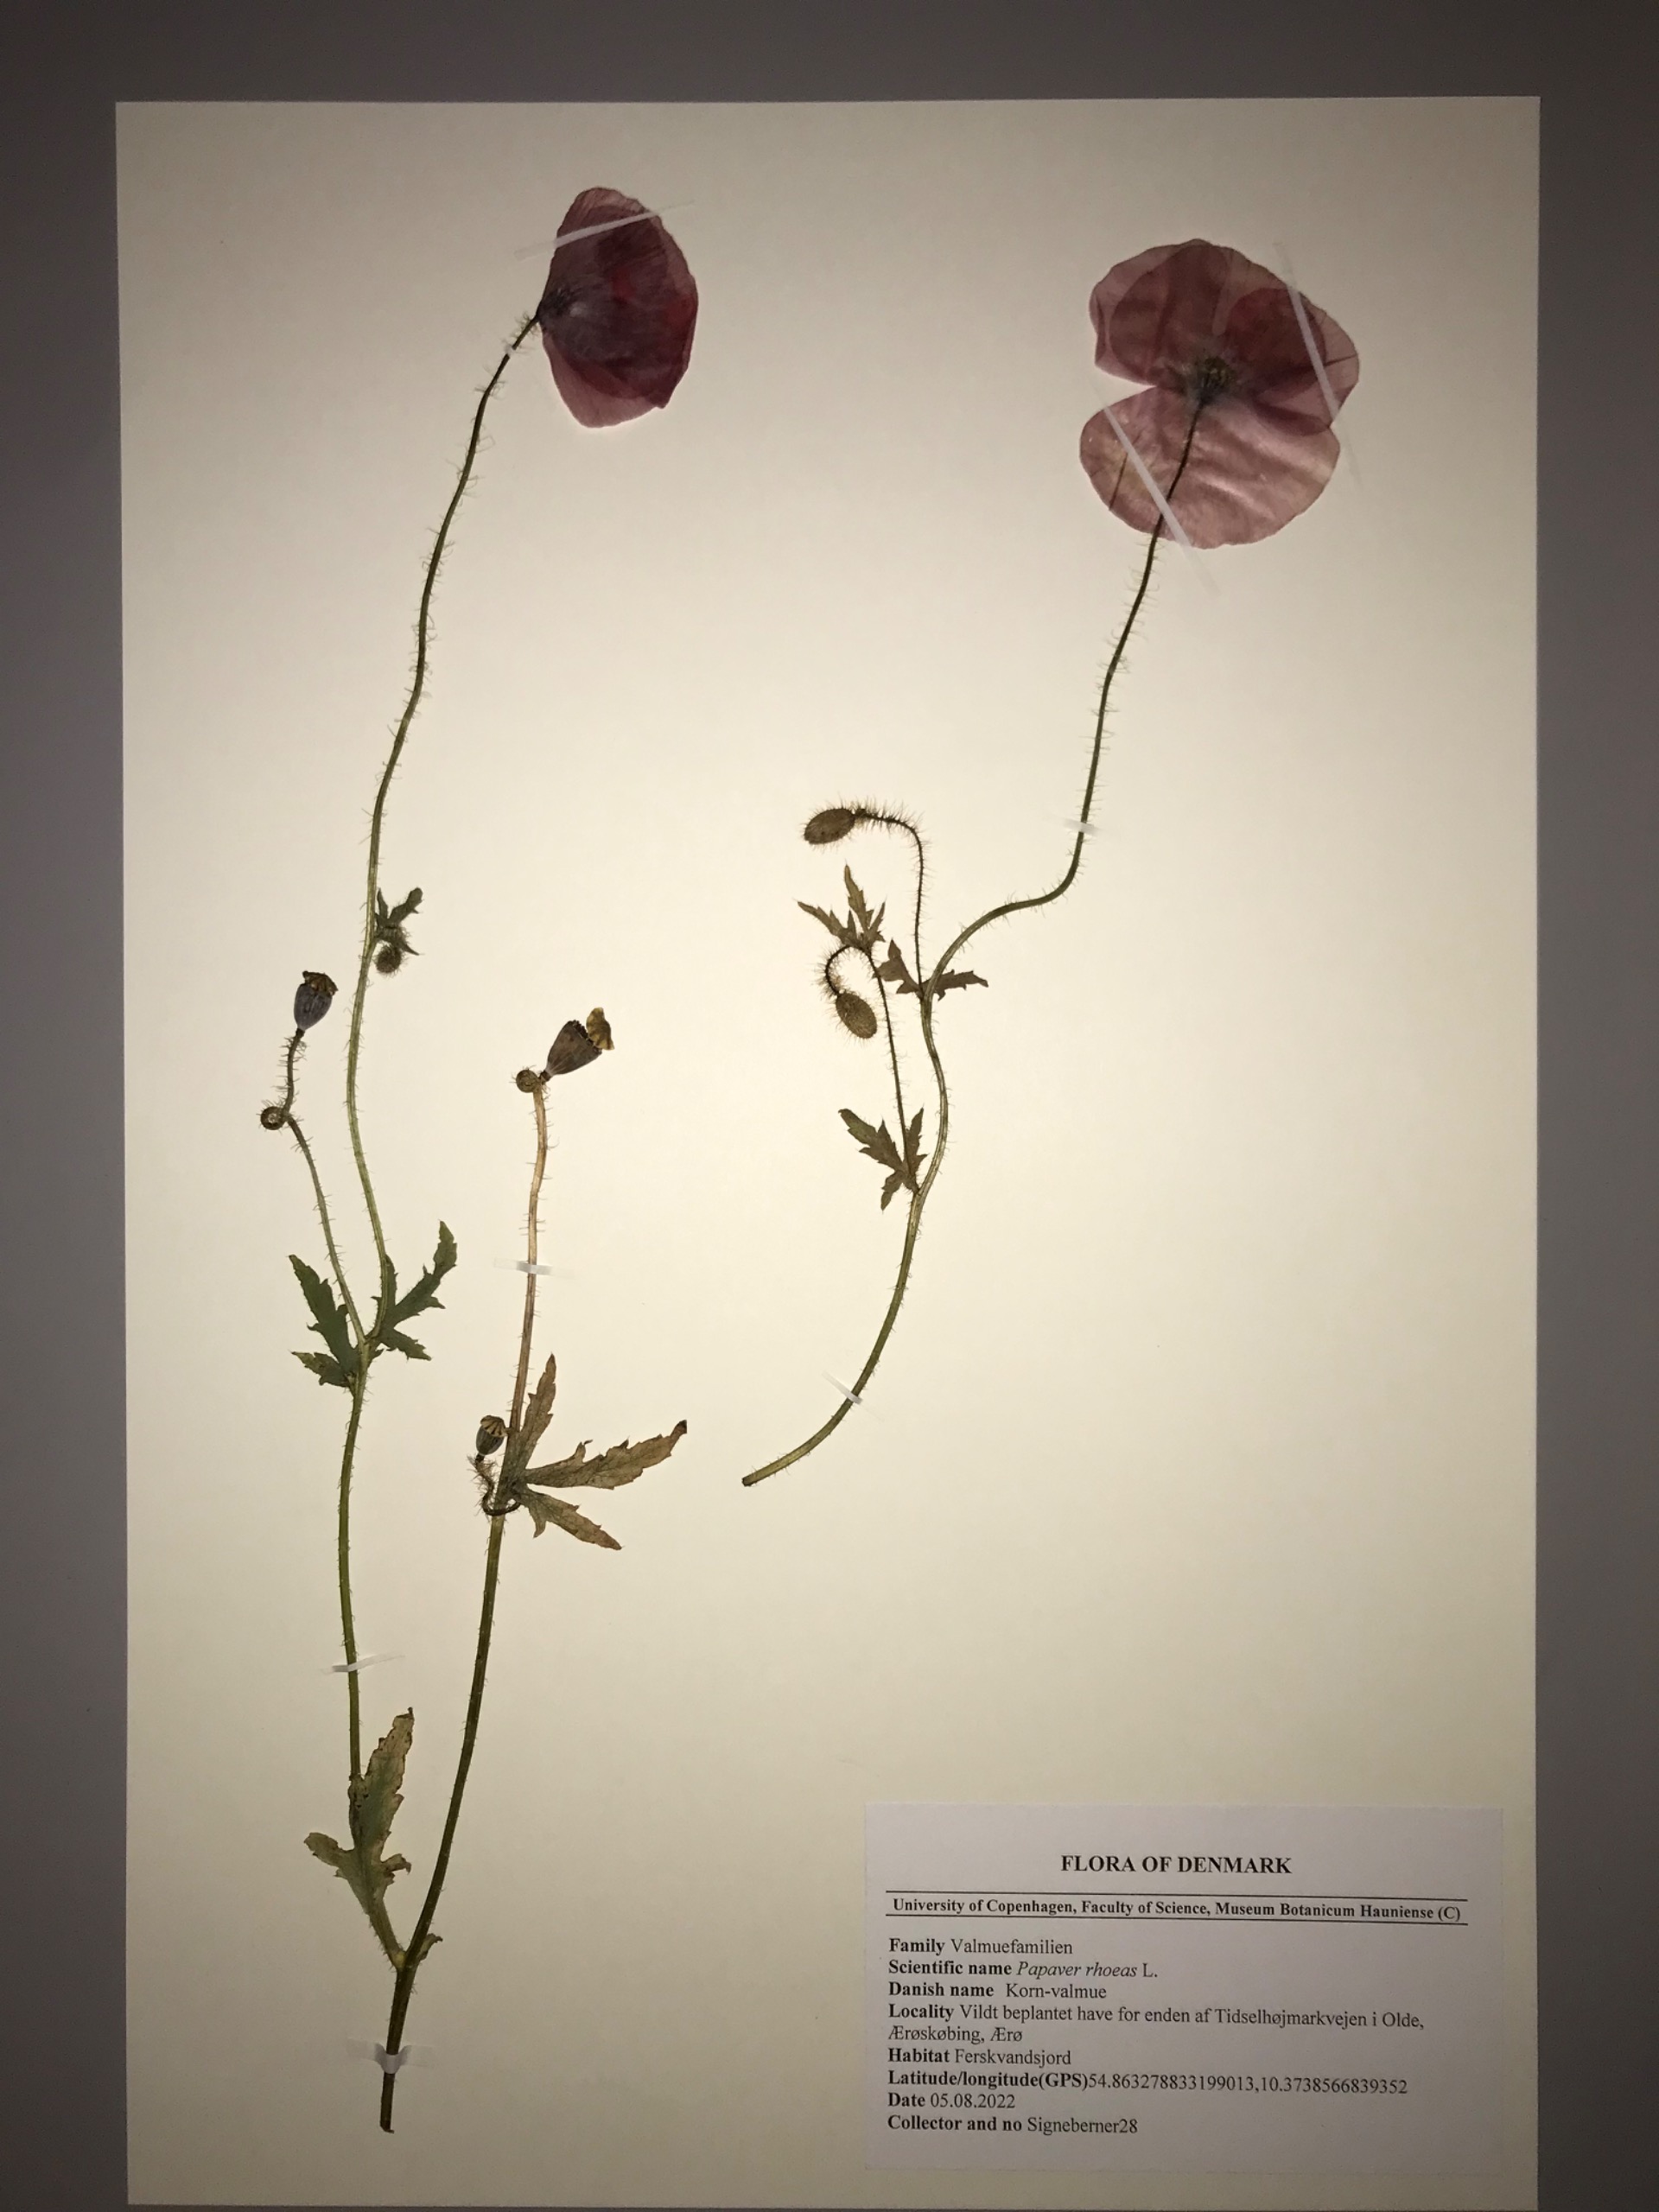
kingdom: Plantae
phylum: Tracheophyta
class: Magnoliopsida
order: Ranunculales
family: Papaveraceae
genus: Papaver
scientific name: Papaver rhoeas
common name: Korn-valmue
